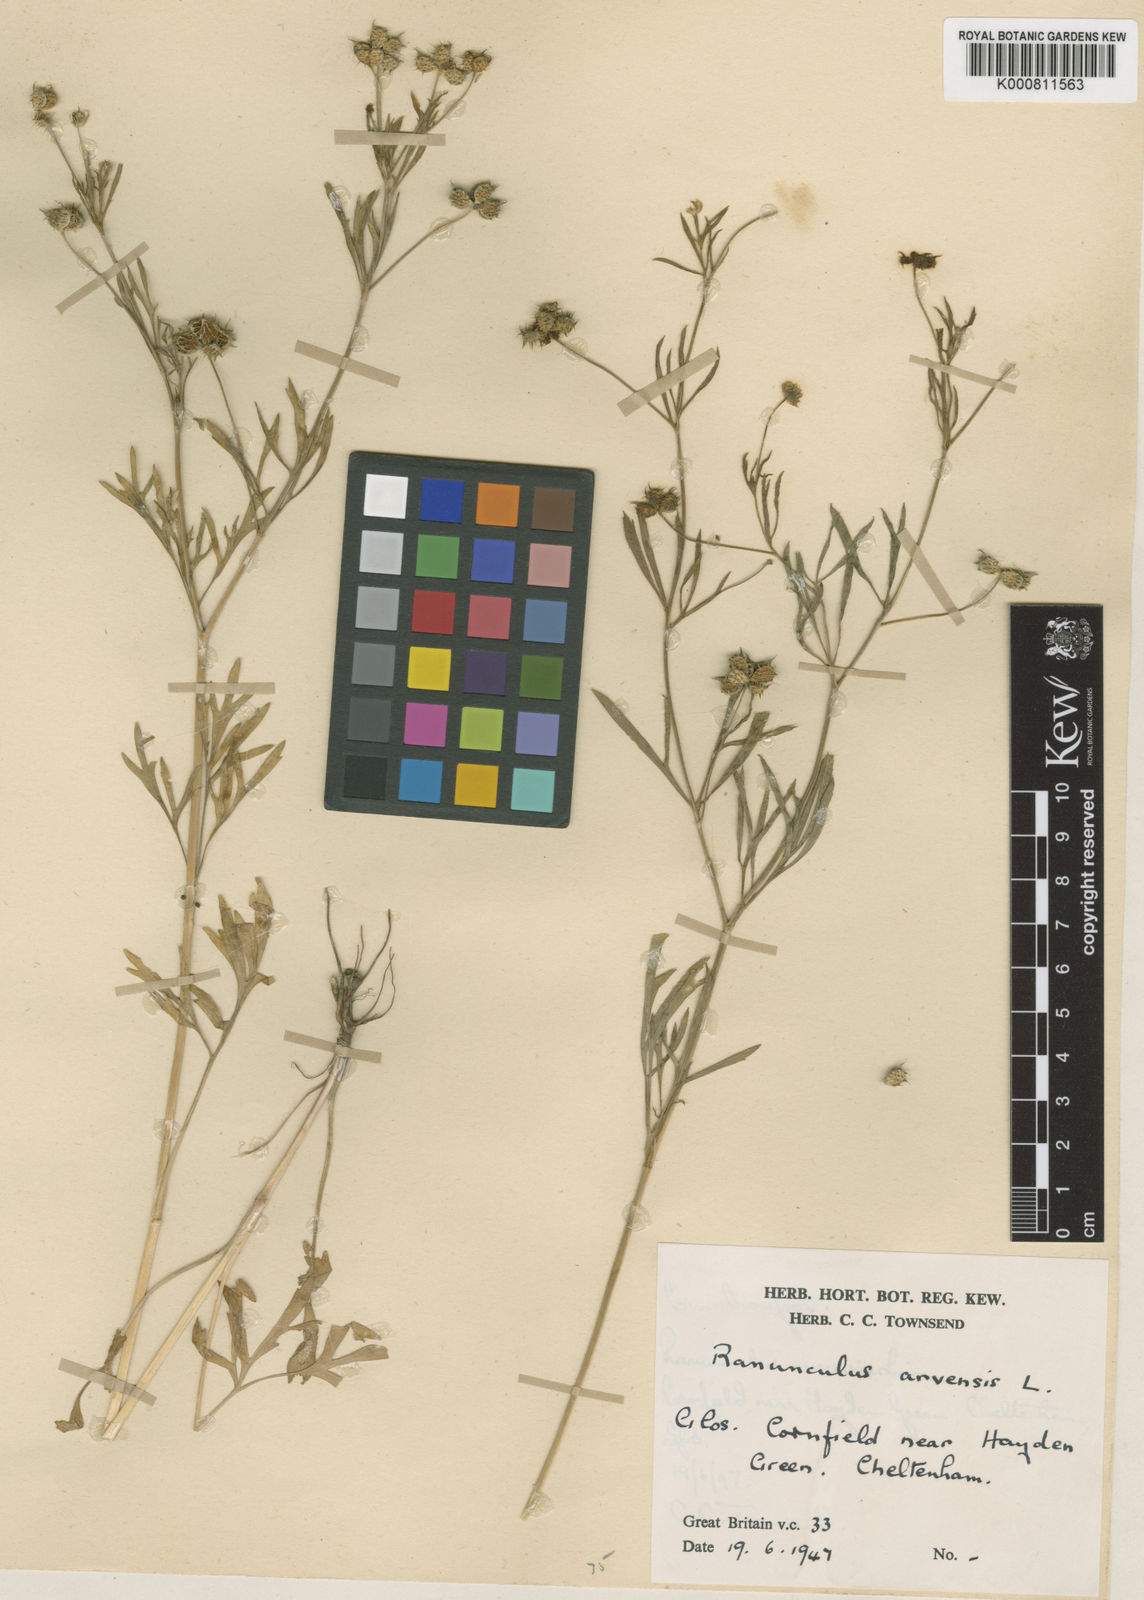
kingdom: Plantae
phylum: Tracheophyta
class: Magnoliopsida
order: Ranunculales
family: Ranunculaceae
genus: Ranunculus
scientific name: Ranunculus arvensis
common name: Corn buttercup
